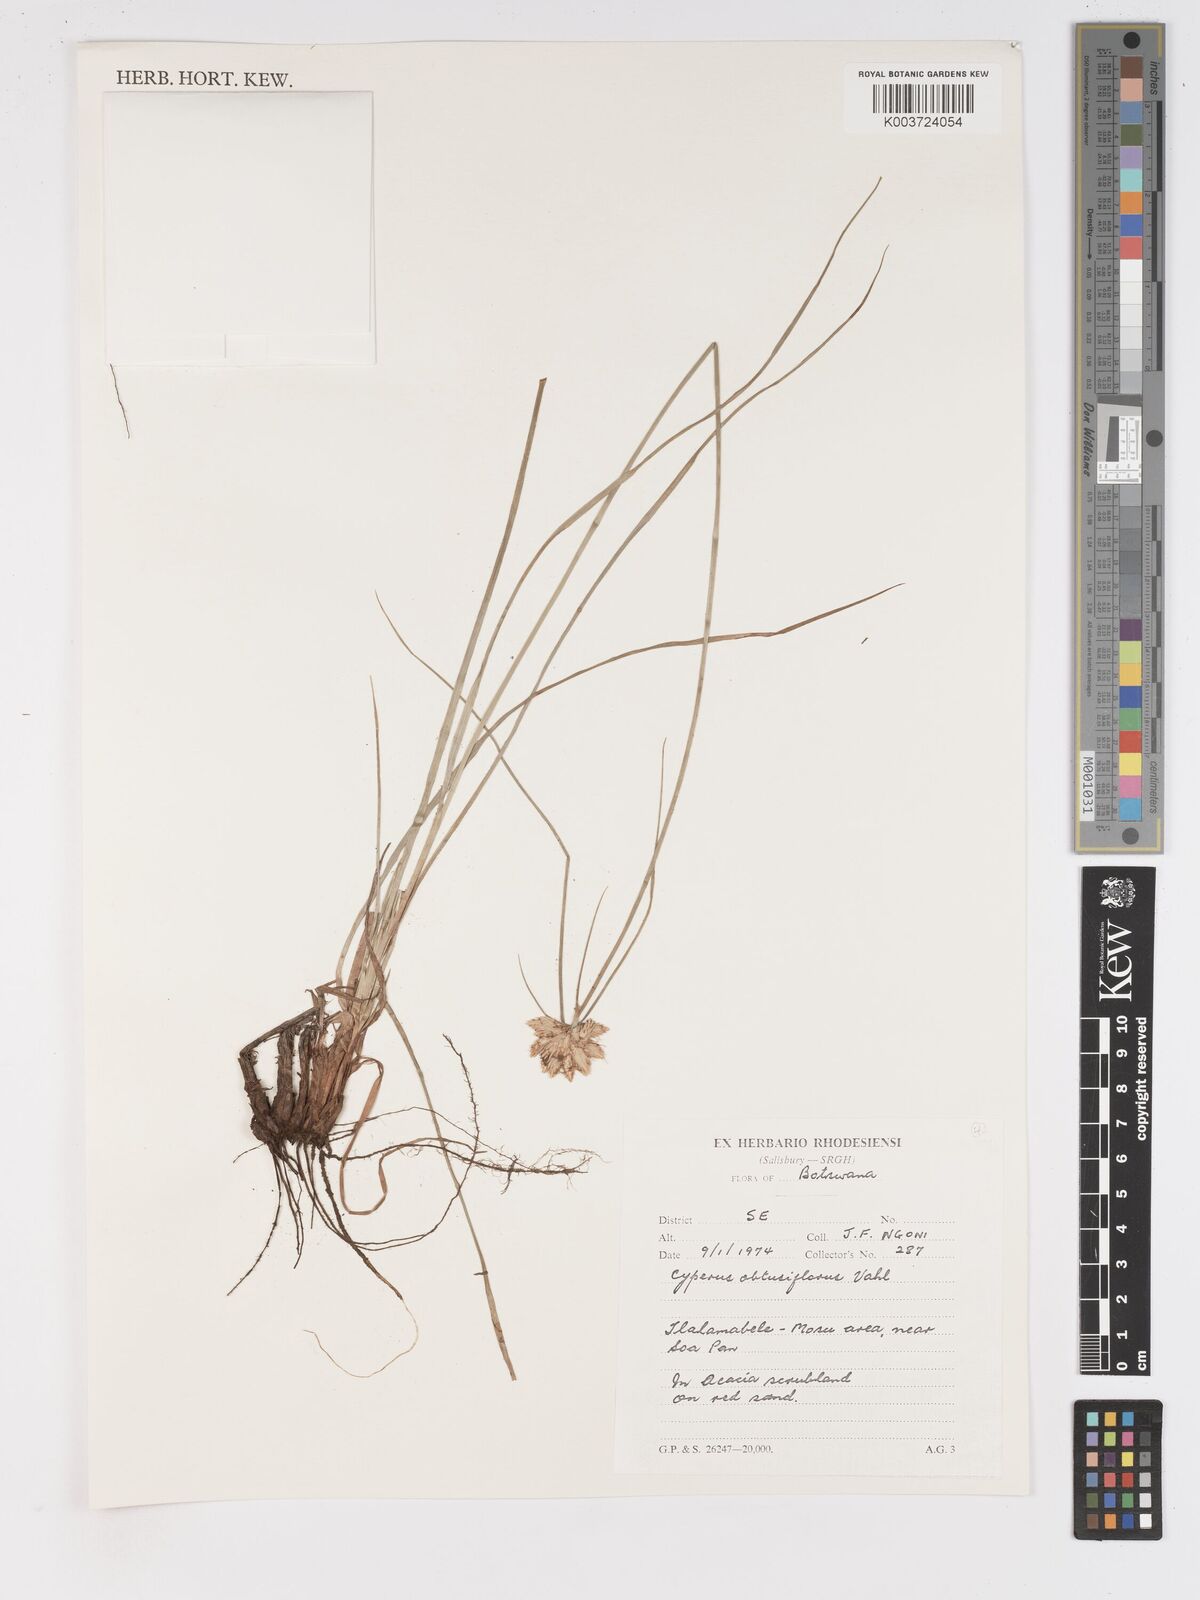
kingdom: Plantae
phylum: Tracheophyta
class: Liliopsida
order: Poales
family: Cyperaceae
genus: Cyperus
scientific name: Cyperus niveus
